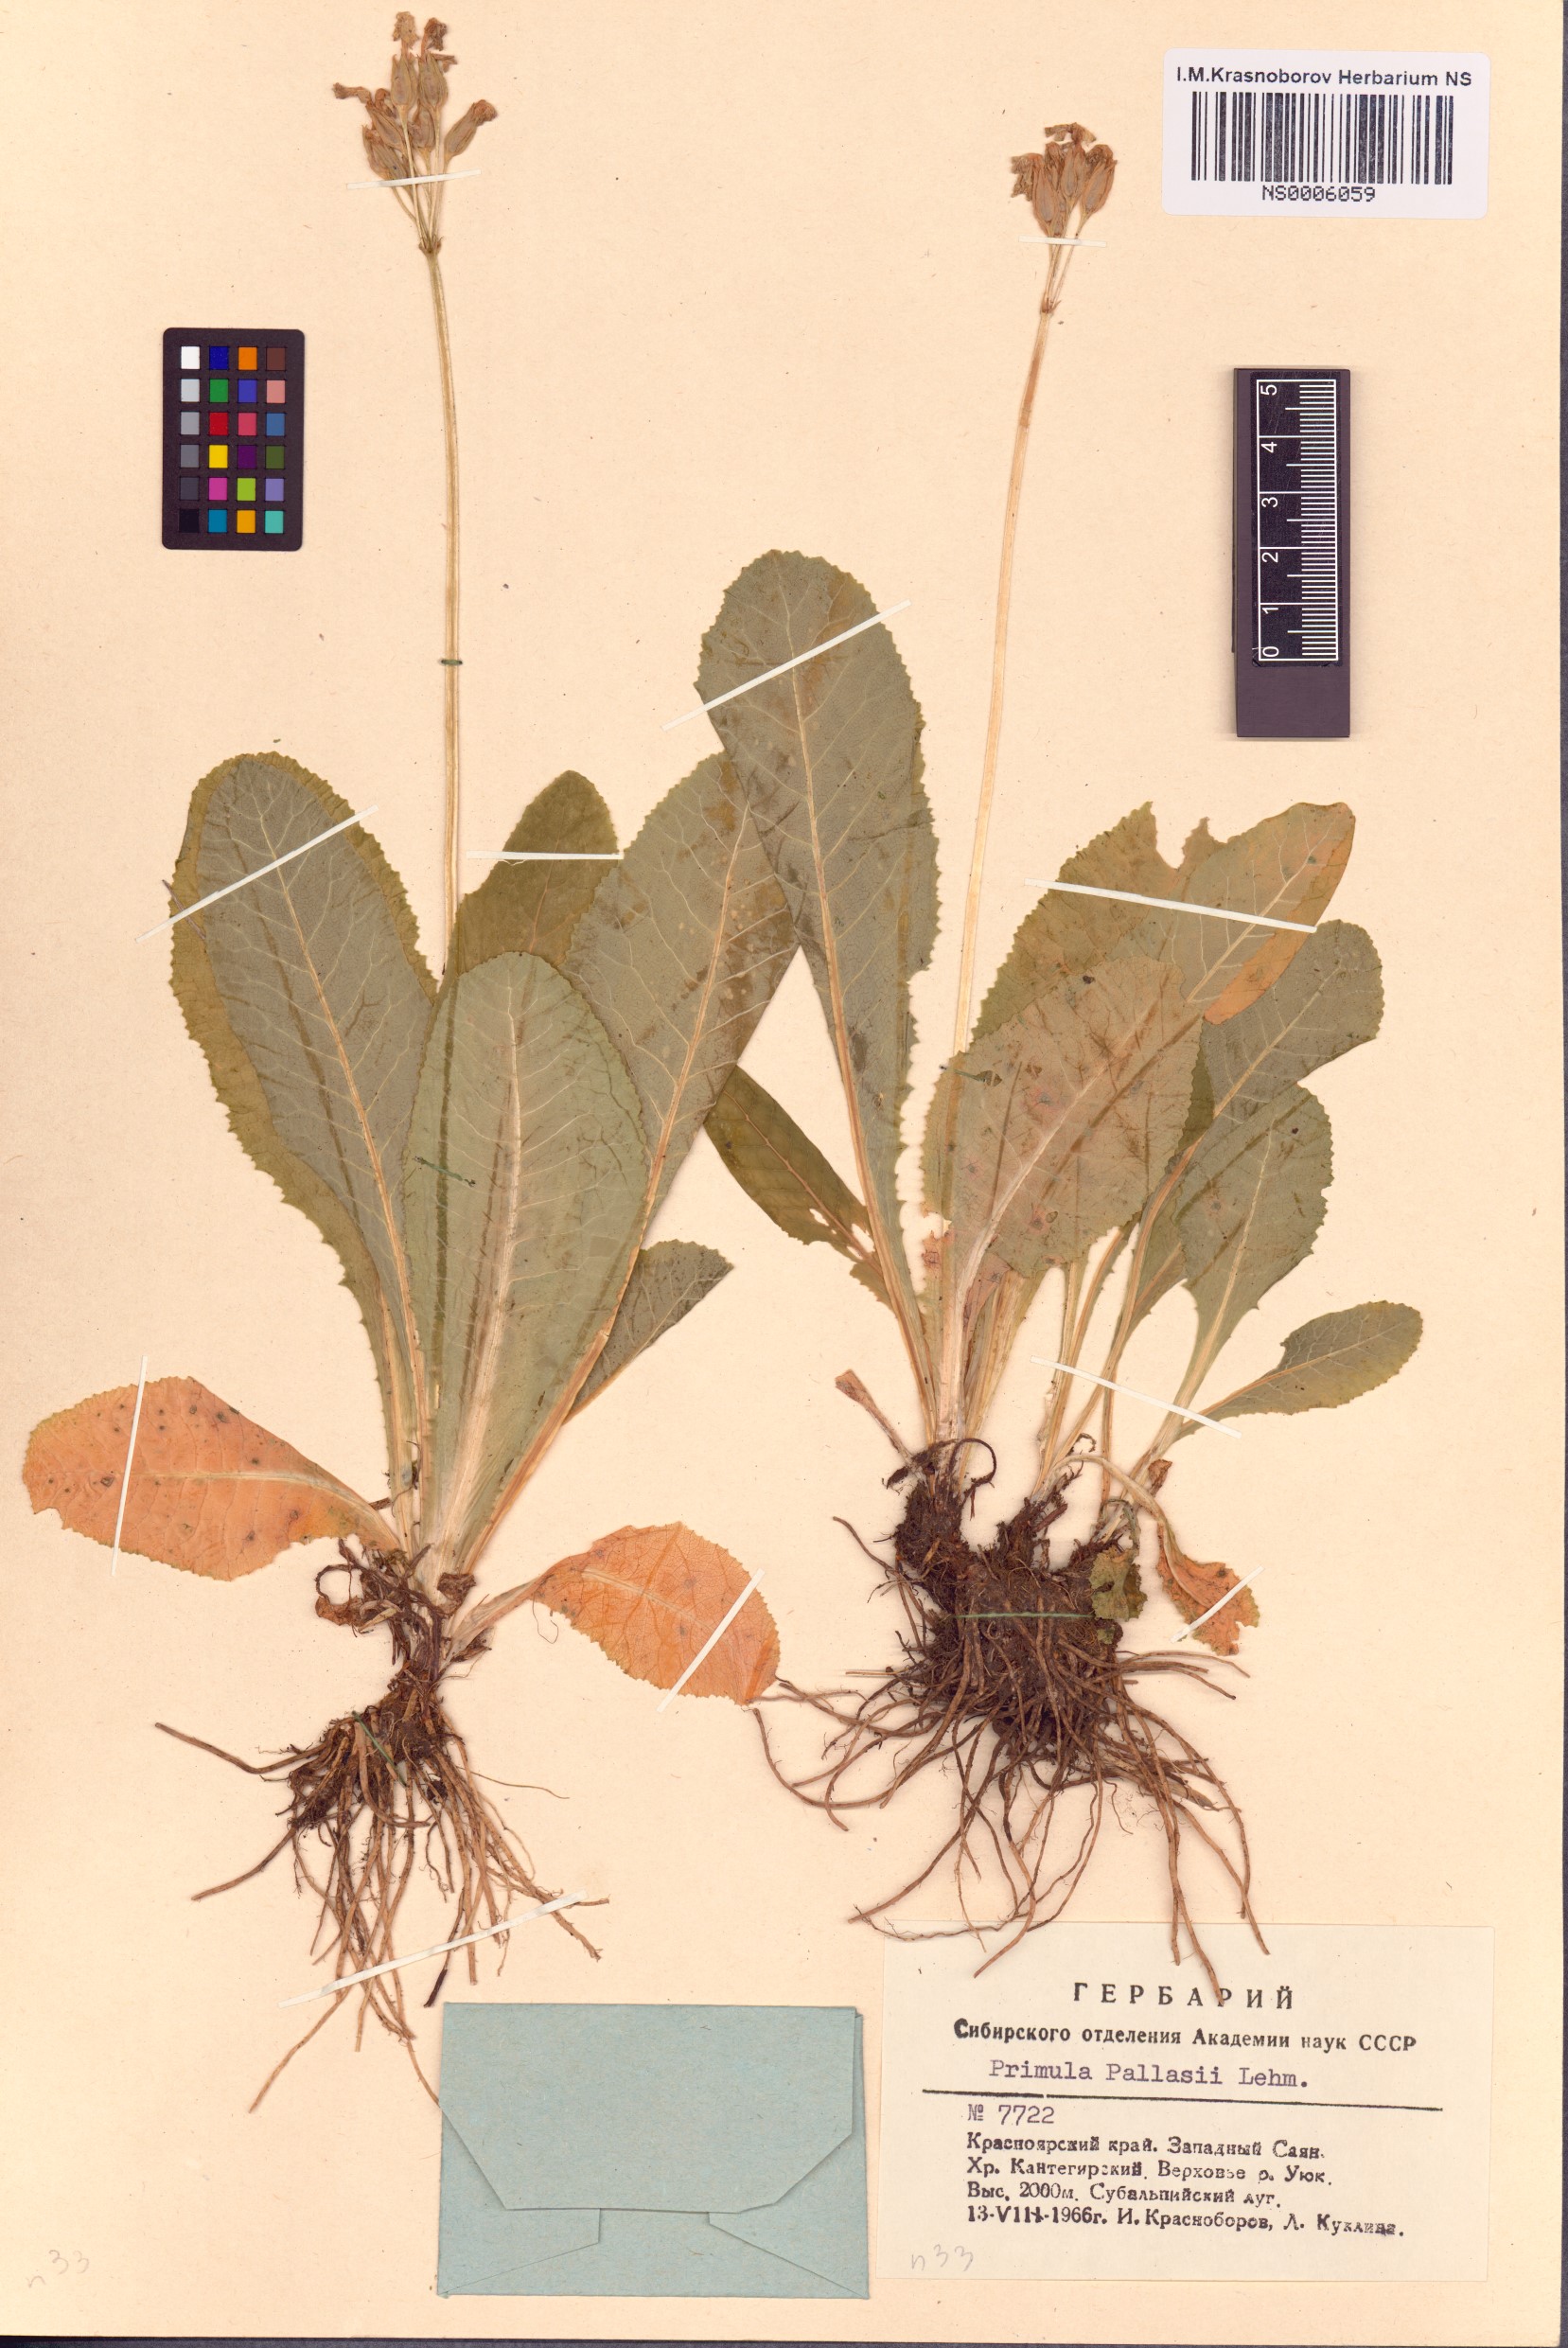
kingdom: Plantae
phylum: Tracheophyta
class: Magnoliopsida
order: Ericales
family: Primulaceae
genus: Primula
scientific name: Primula elatior
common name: Oxlip
